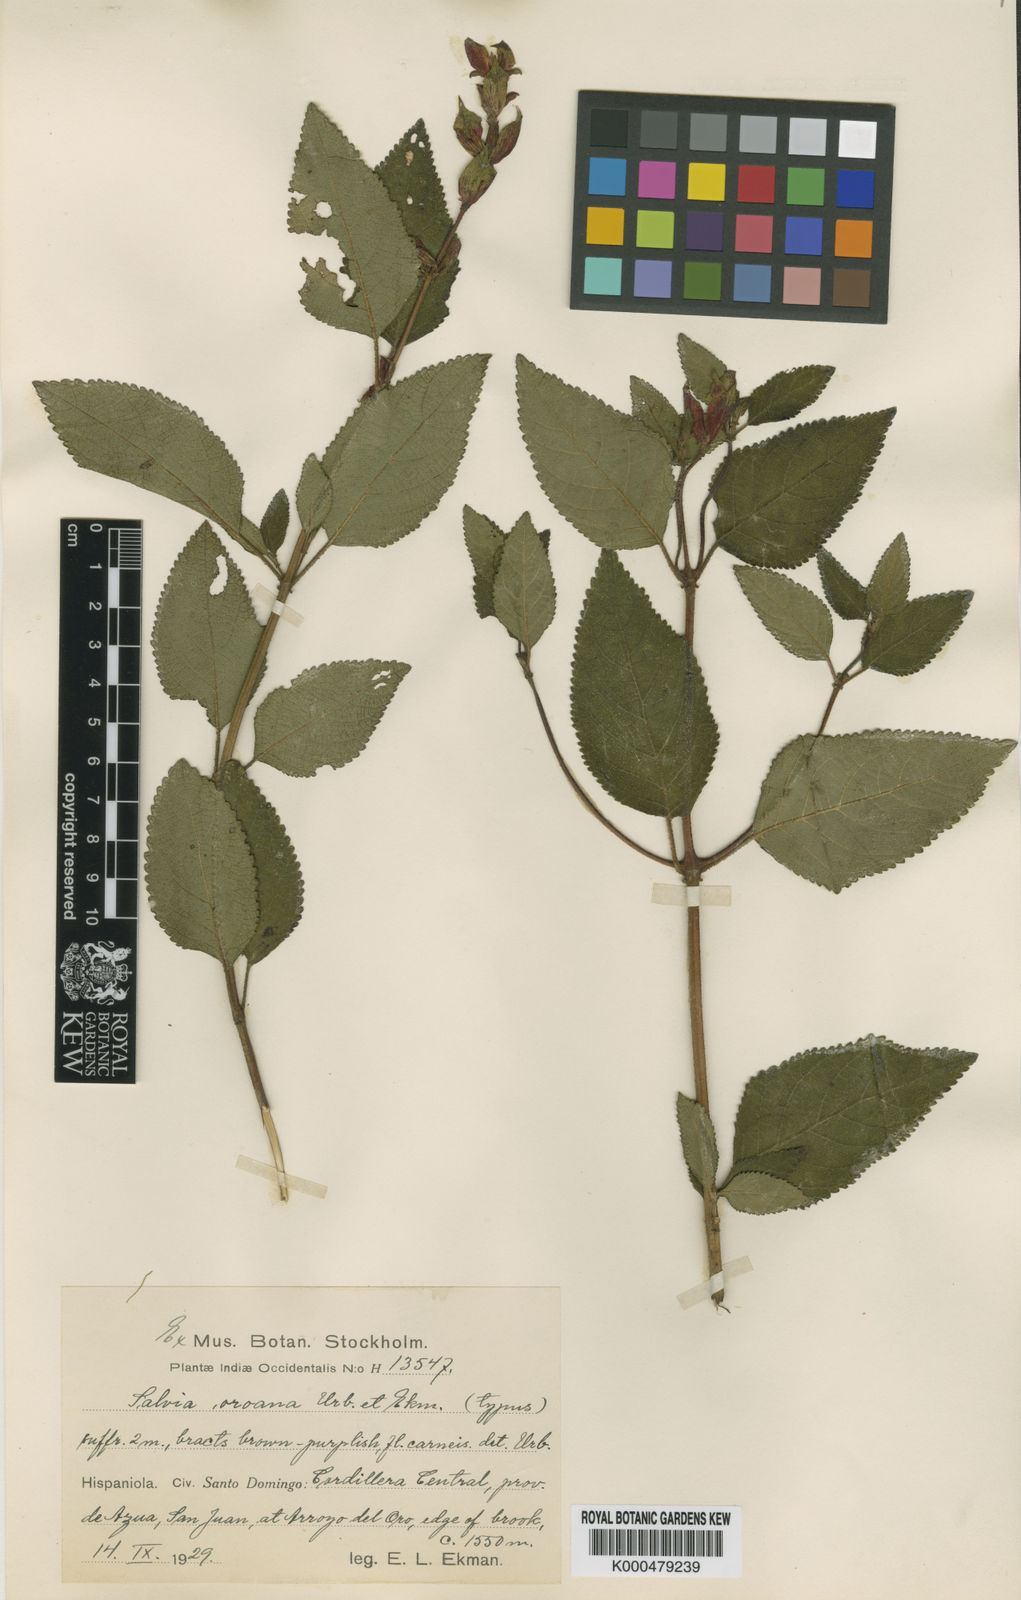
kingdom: Plantae
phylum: Tracheophyta
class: Magnoliopsida
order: Lamiales
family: Lamiaceae
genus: Salvia
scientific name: Salvia thormannii
